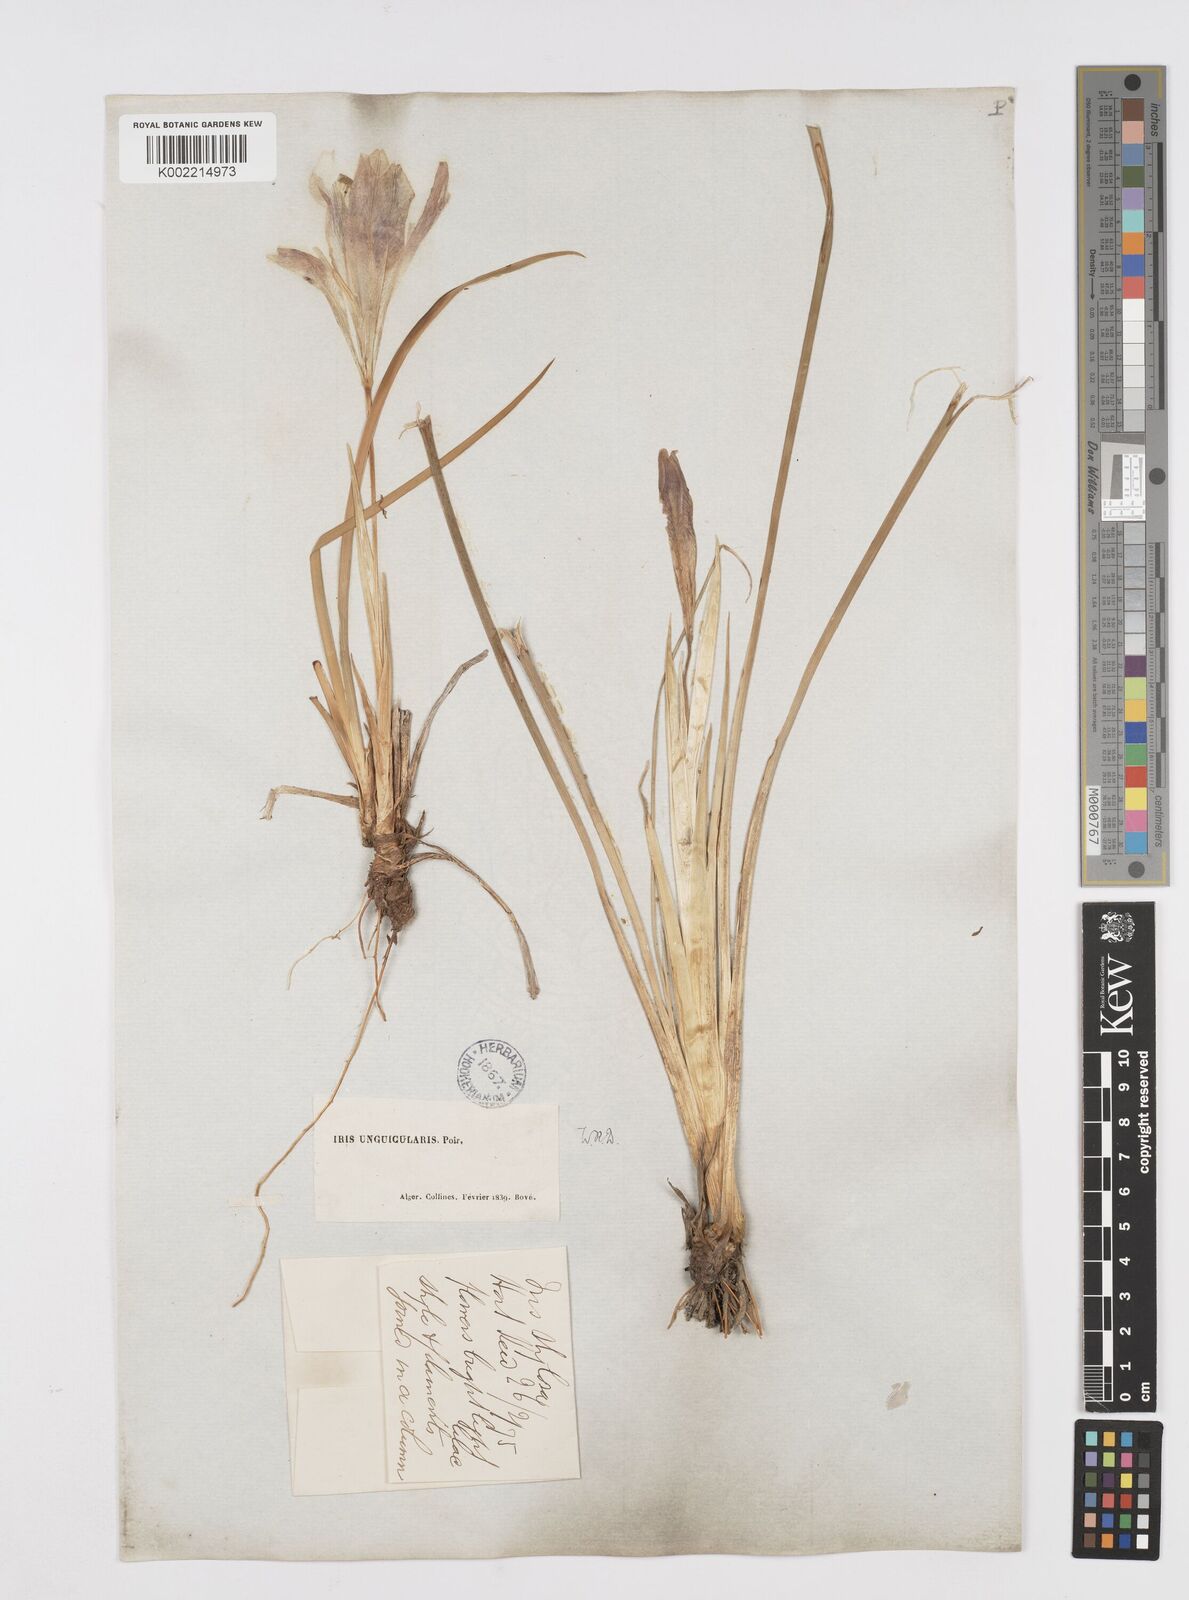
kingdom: Plantae
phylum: Tracheophyta
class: Liliopsida
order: Asparagales
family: Iridaceae
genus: Iris
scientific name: Iris unguicularis
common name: Algerian iris
